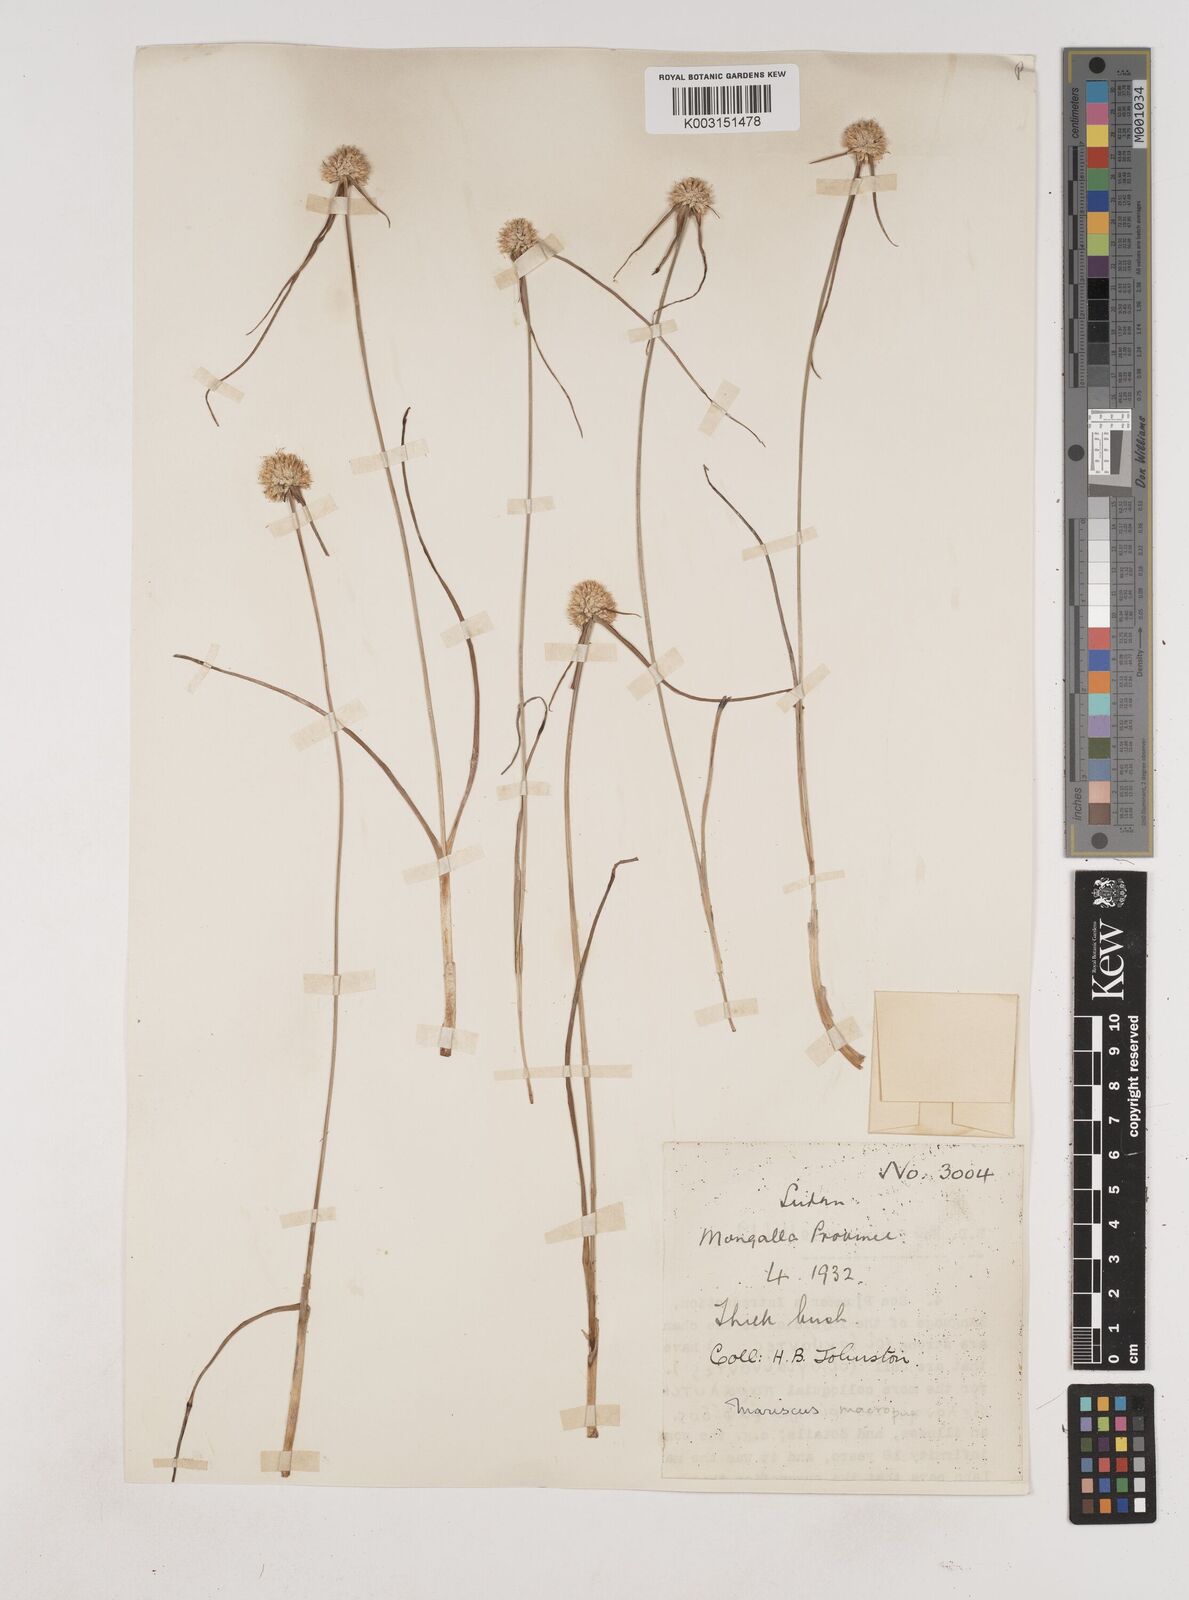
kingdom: Plantae
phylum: Tracheophyta
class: Liliopsida
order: Poales
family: Cyperaceae
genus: Cyperus
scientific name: Cyperus mollipes
